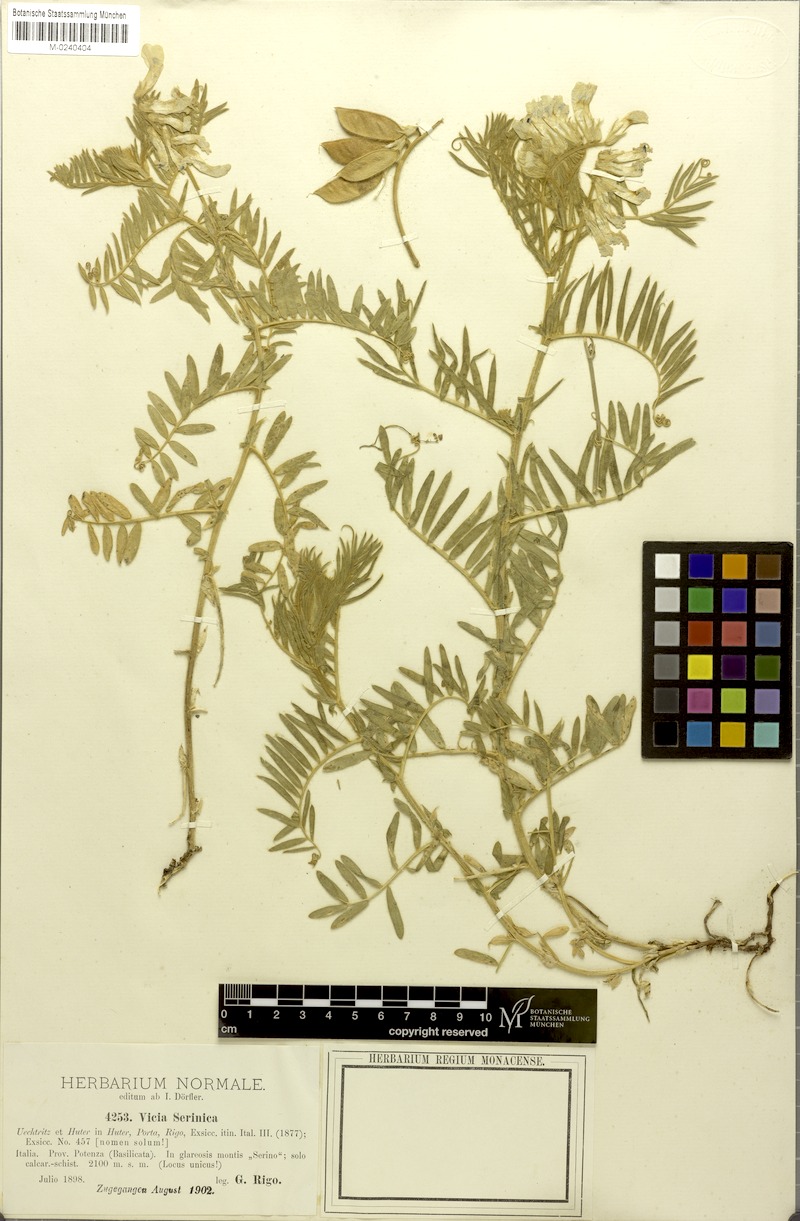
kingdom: Plantae
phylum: Tracheophyta
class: Magnoliopsida
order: Fabales
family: Fabaceae
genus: Vicia
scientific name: Vicia canescens
